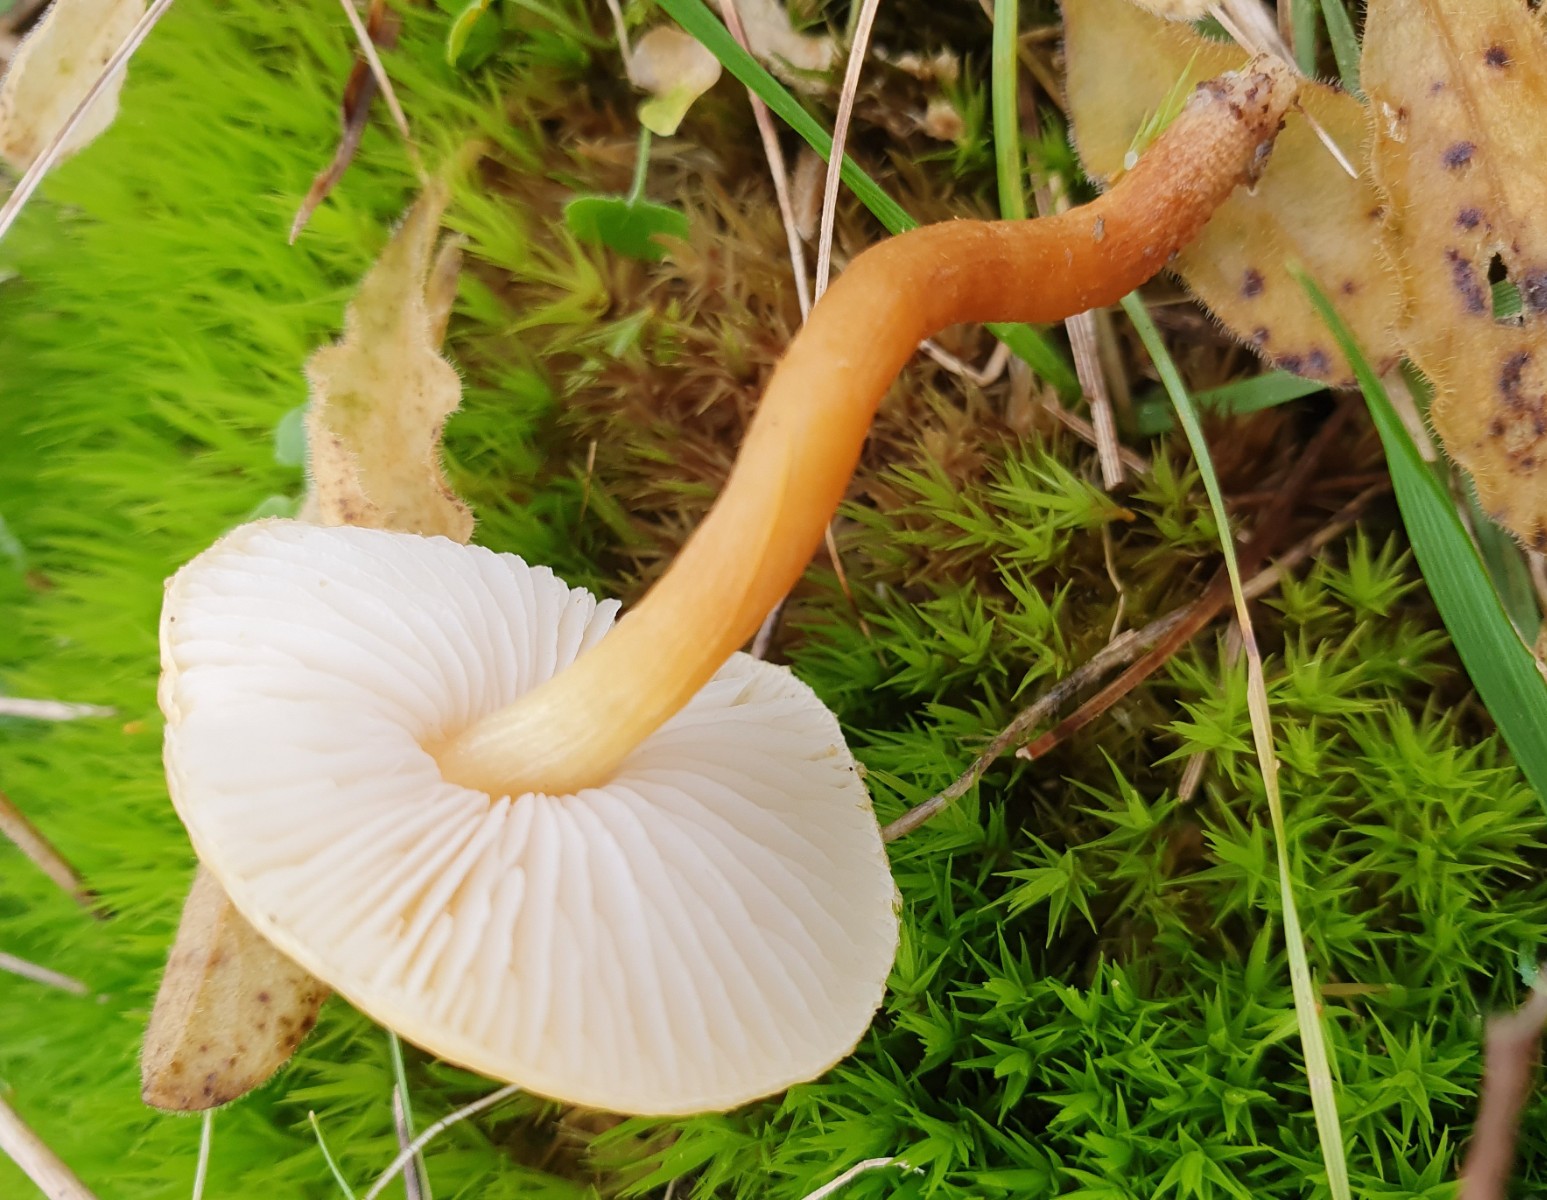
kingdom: Fungi
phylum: Basidiomycota
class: Agaricomycetes
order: Agaricales
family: Tricholomataceae
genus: Cystoderma
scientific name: Cystoderma amianthinum
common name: okkergul grynhat
